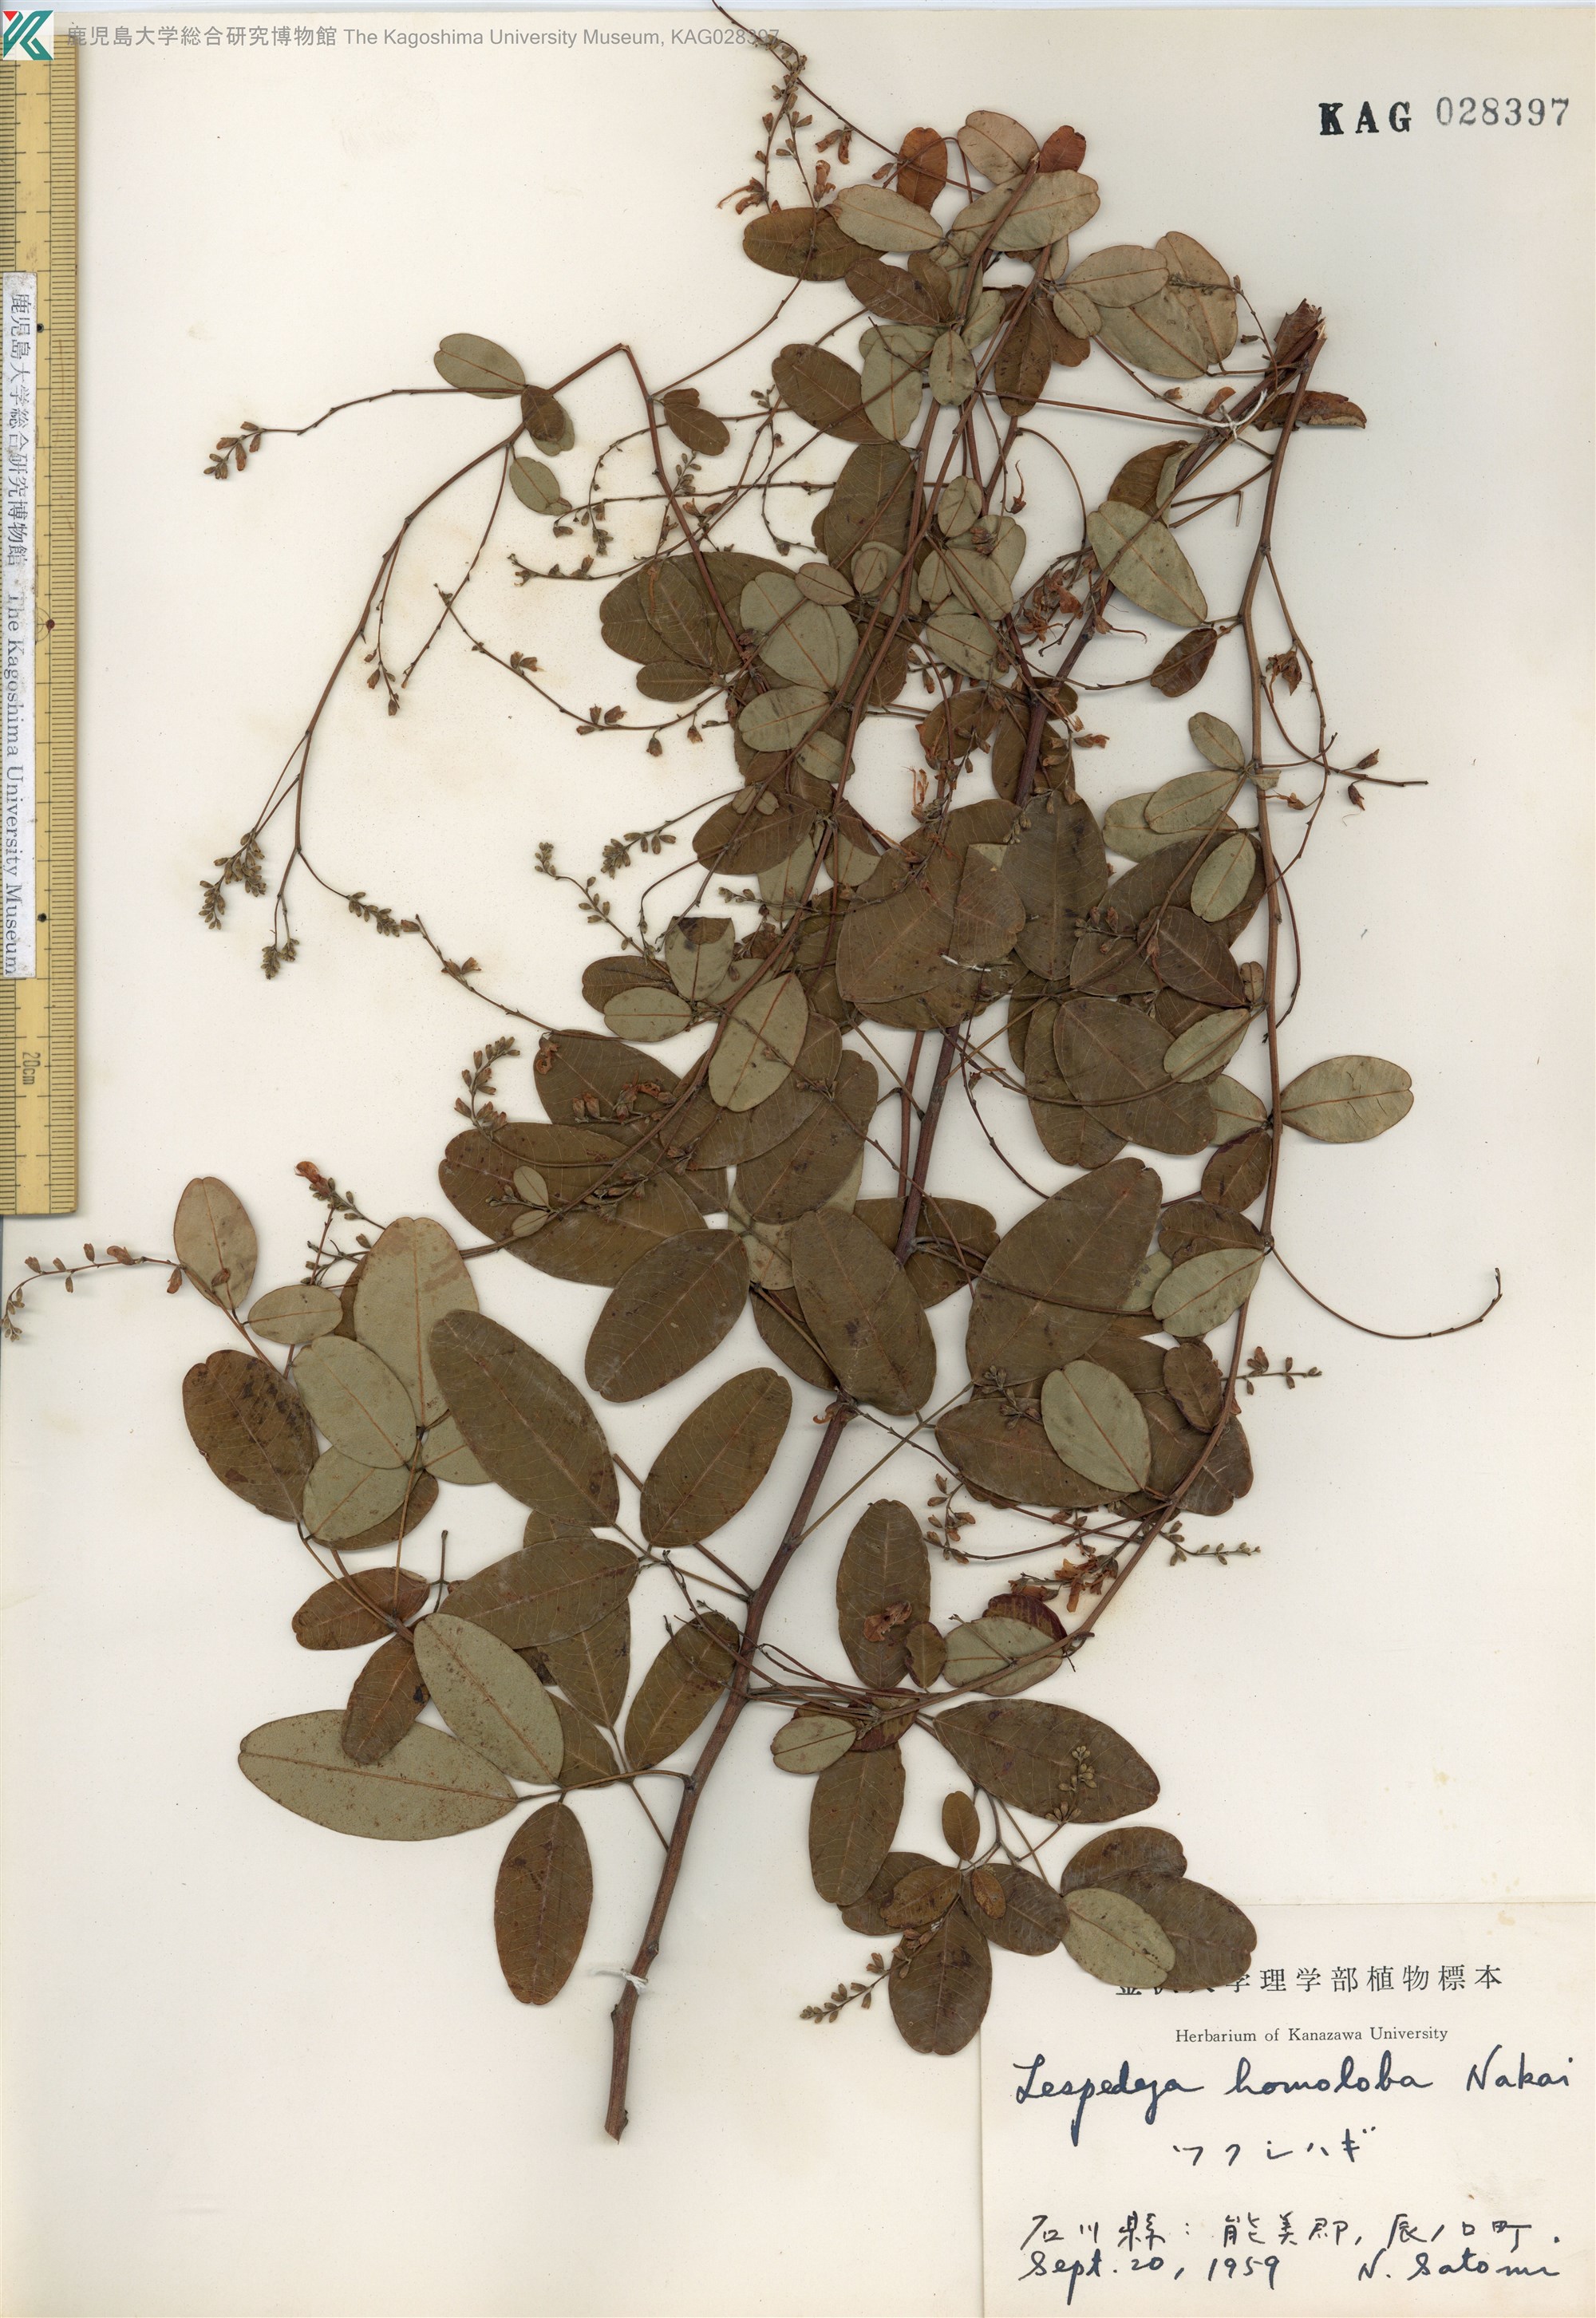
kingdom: Plantae
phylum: Tracheophyta
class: Magnoliopsida
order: Fabales
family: Fabaceae
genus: Lespedeza
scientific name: Lespedeza homoloba
